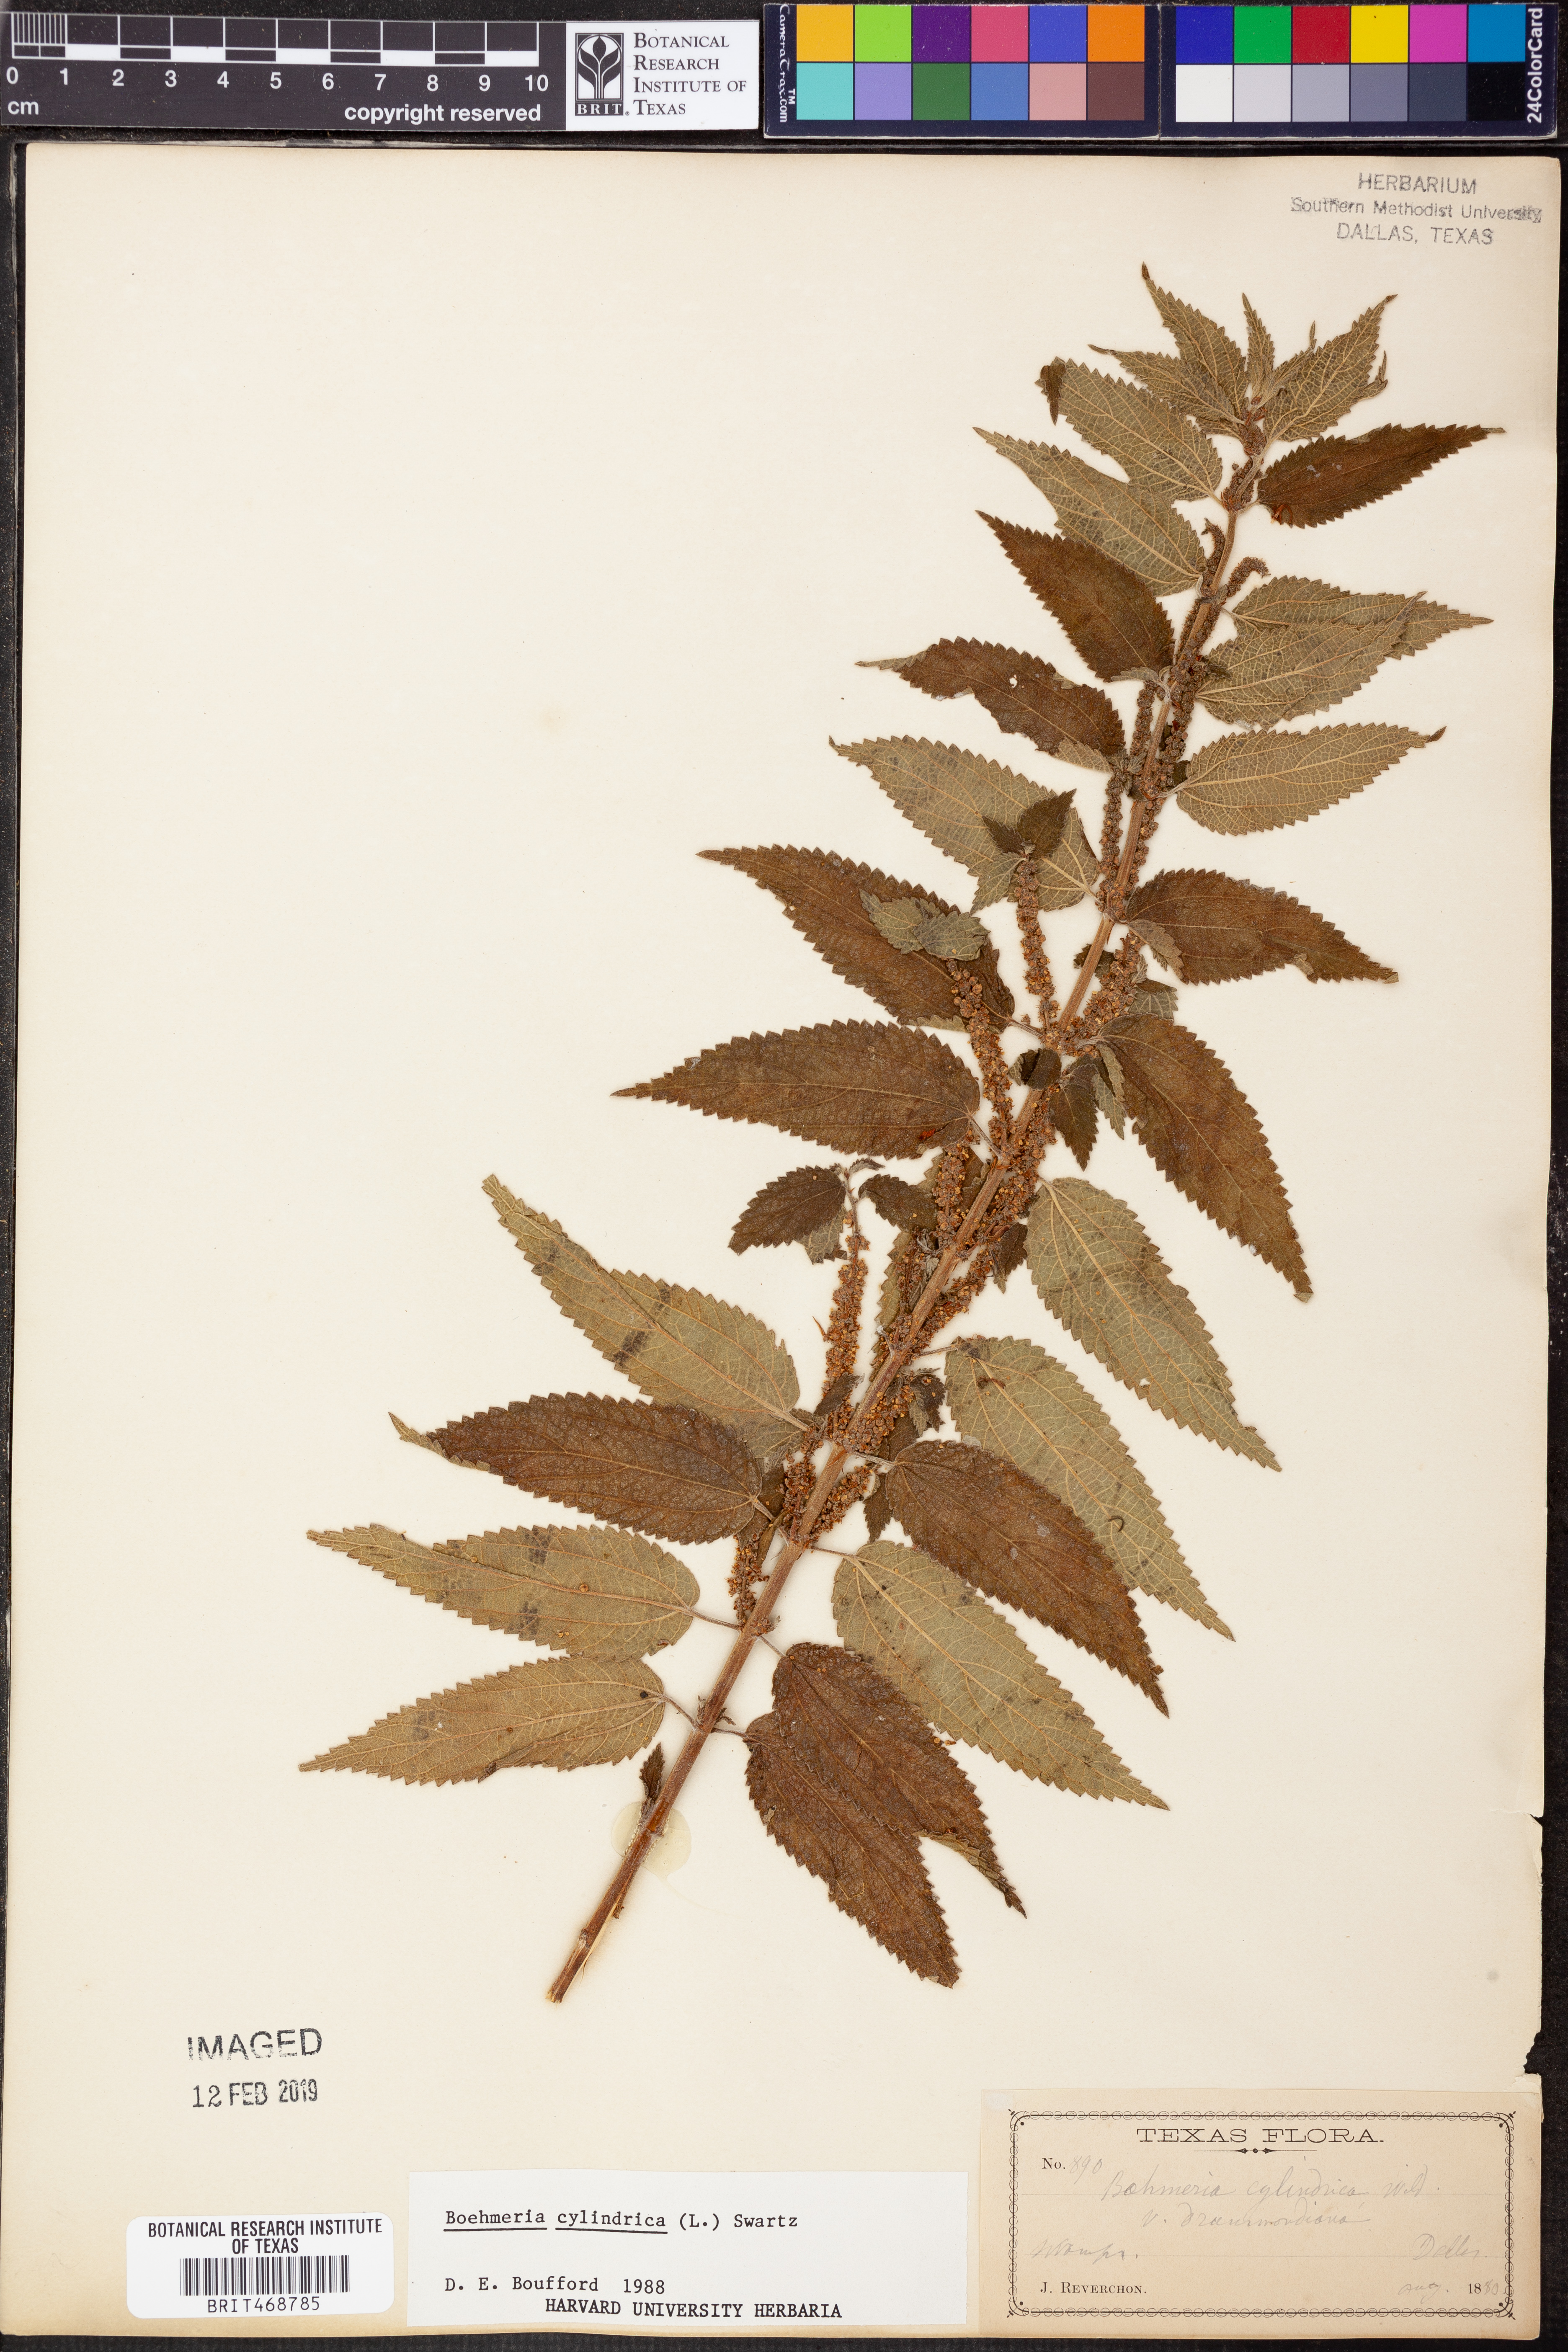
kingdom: Plantae
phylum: Tracheophyta
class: Magnoliopsida
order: Rosales
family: Urticaceae
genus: Boehmeria
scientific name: Boehmeria cylindrica
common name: Bog-hemp
